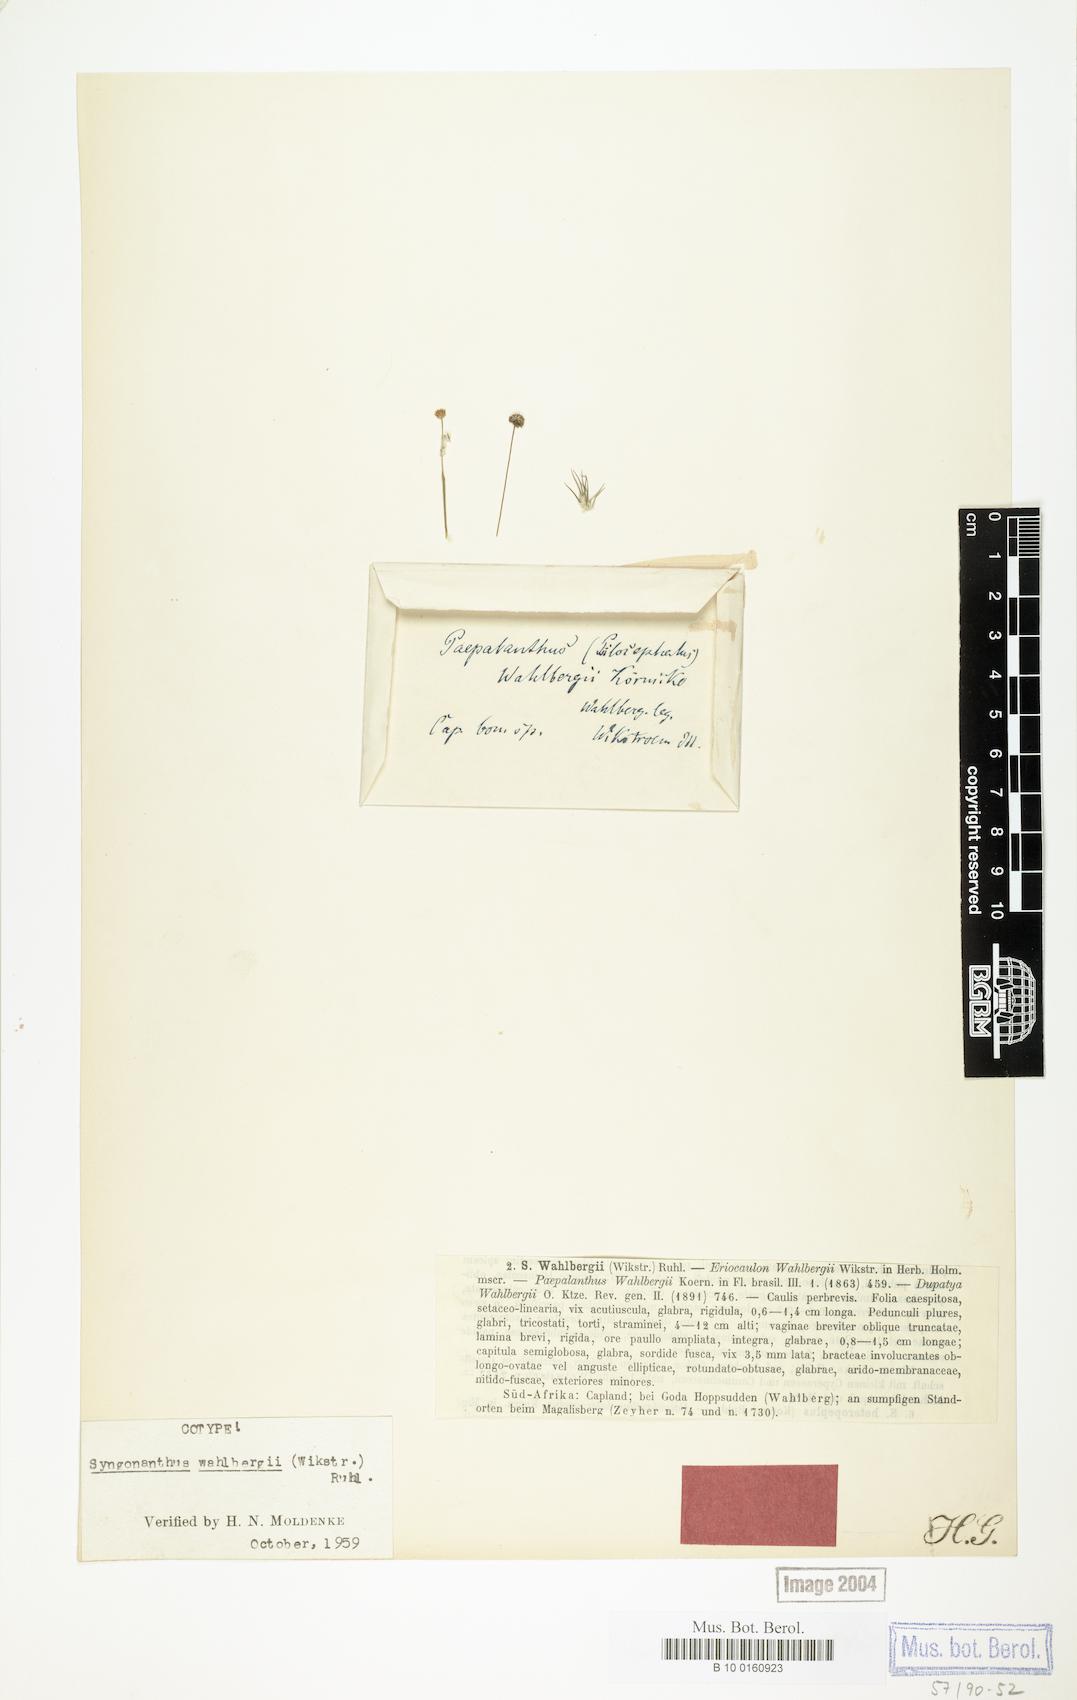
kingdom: Plantae
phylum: Tracheophyta
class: Liliopsida
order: Poales
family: Eriocaulaceae
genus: Syngonanthus
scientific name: Syngonanthus wahlbergii
